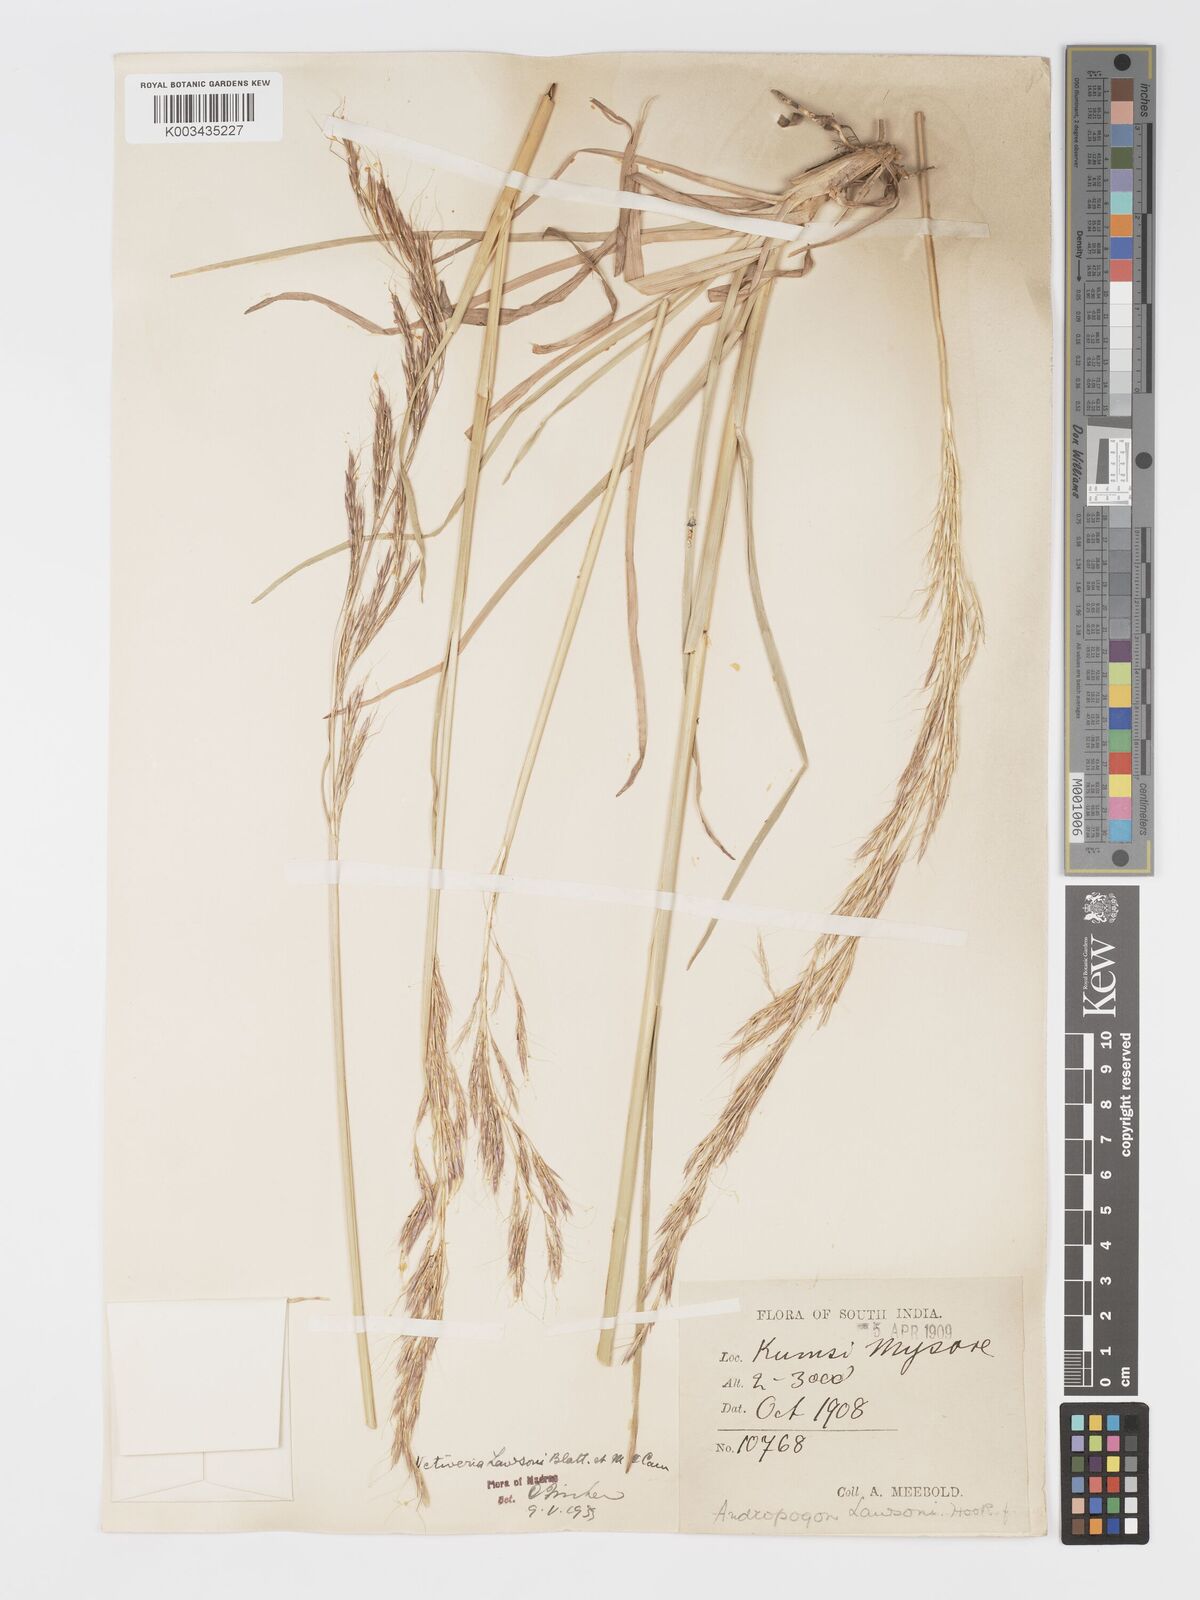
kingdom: Plantae
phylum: Tracheophyta
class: Liliopsida
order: Poales
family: Poaceae
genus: Chrysopogon
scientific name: Chrysopogon lawsonii
